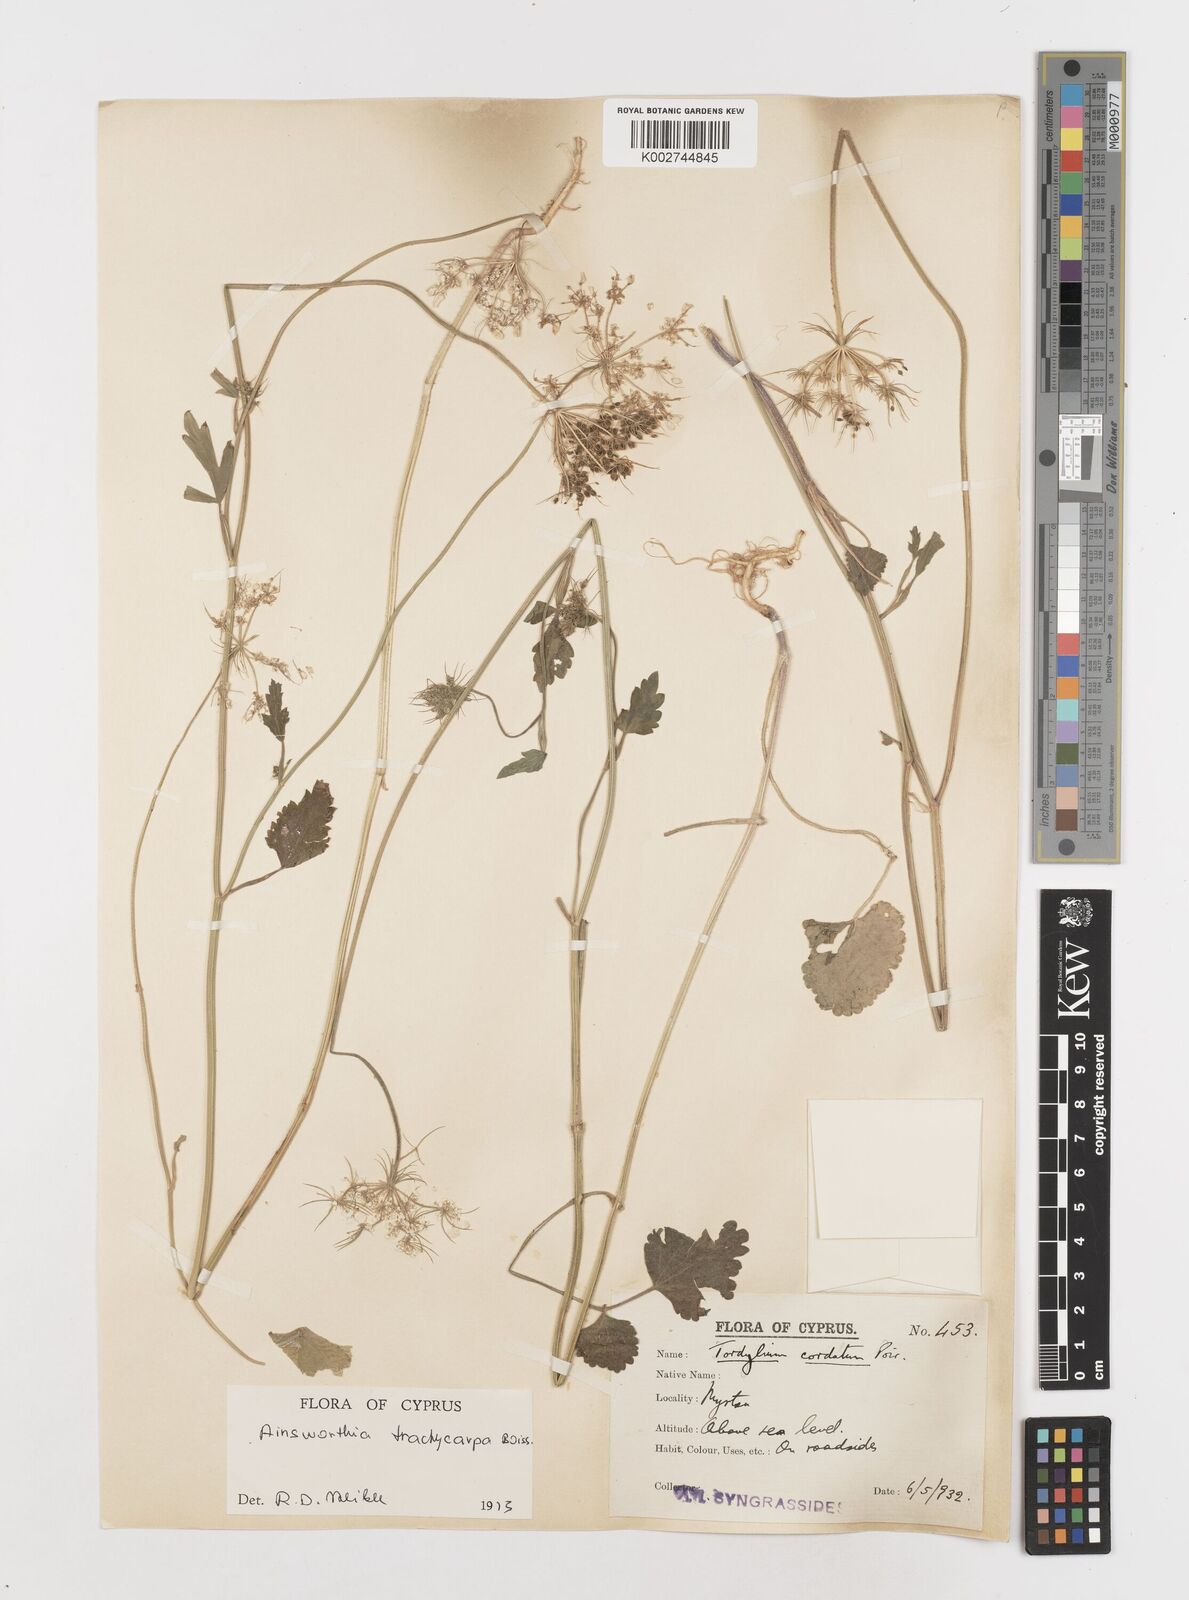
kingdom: Plantae
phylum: Tracheophyta
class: Magnoliopsida
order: Apiales
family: Apiaceae
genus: Ainsworthia
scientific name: Ainsworthia trachycarpa
